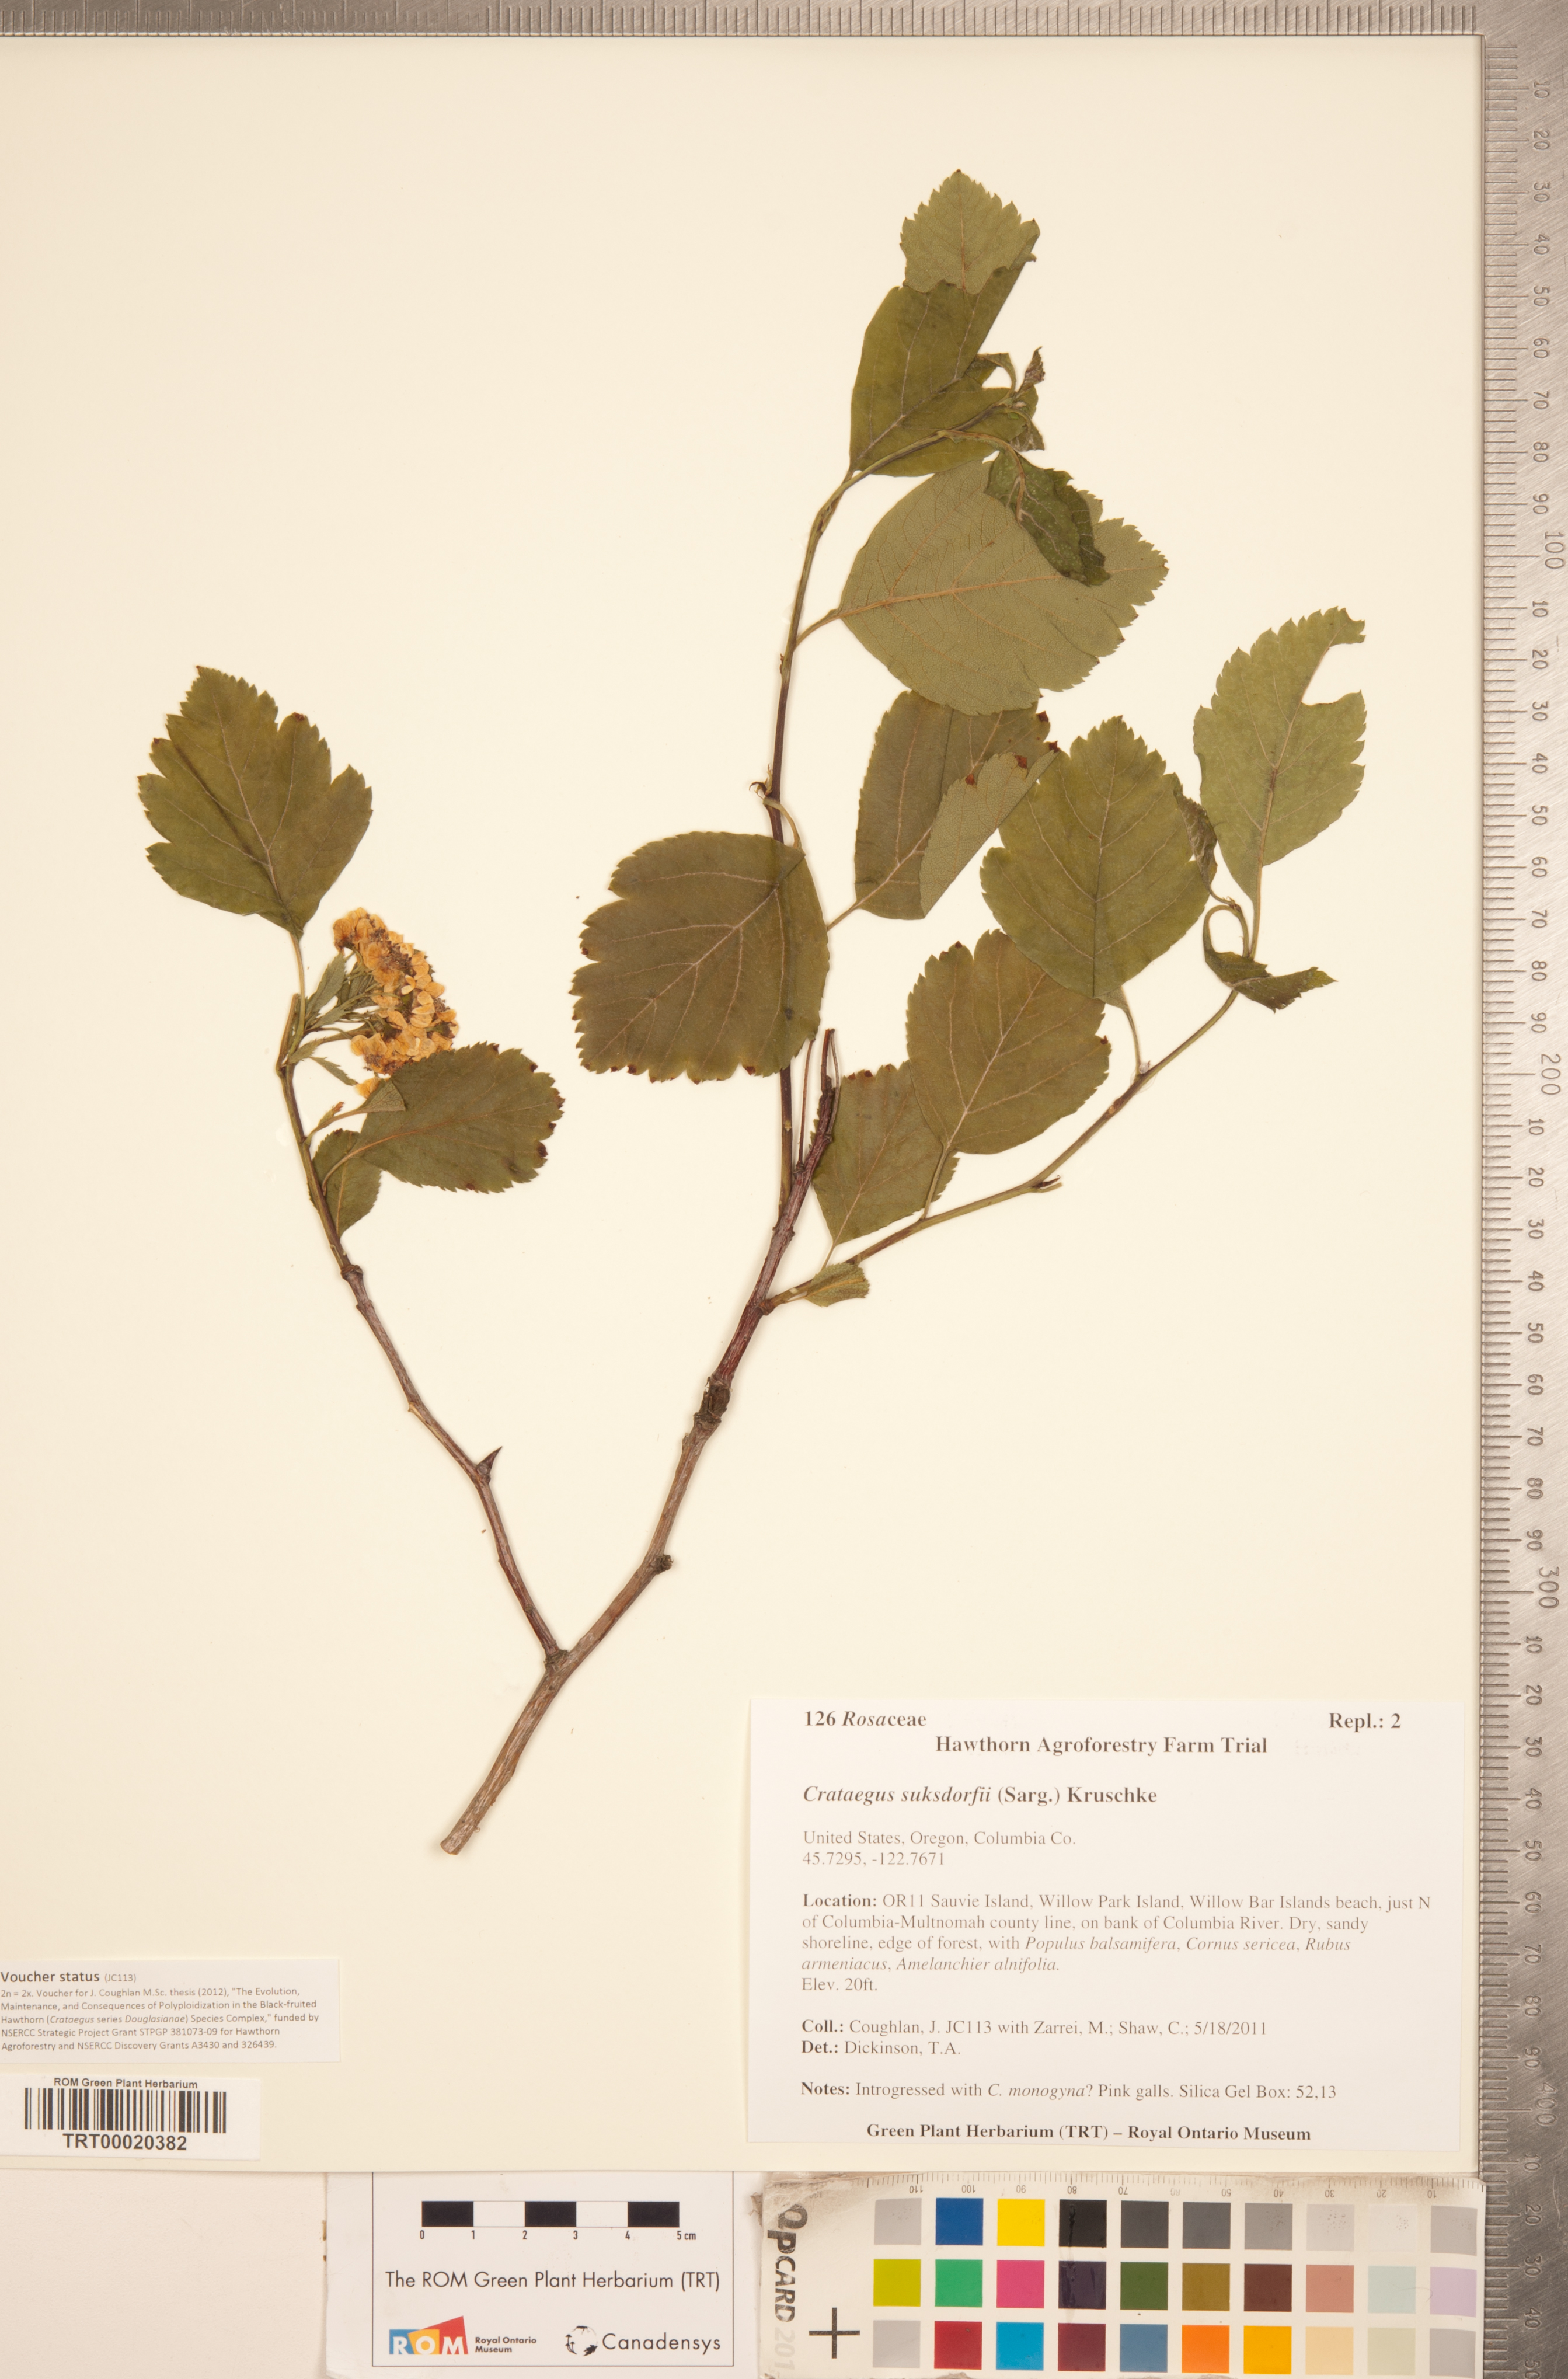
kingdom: Plantae
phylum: Tracheophyta
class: Magnoliopsida
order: Rosales
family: Rosaceae
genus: Crataegus
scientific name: Crataegus gaylussacia
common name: Huckleberry hawthorn
